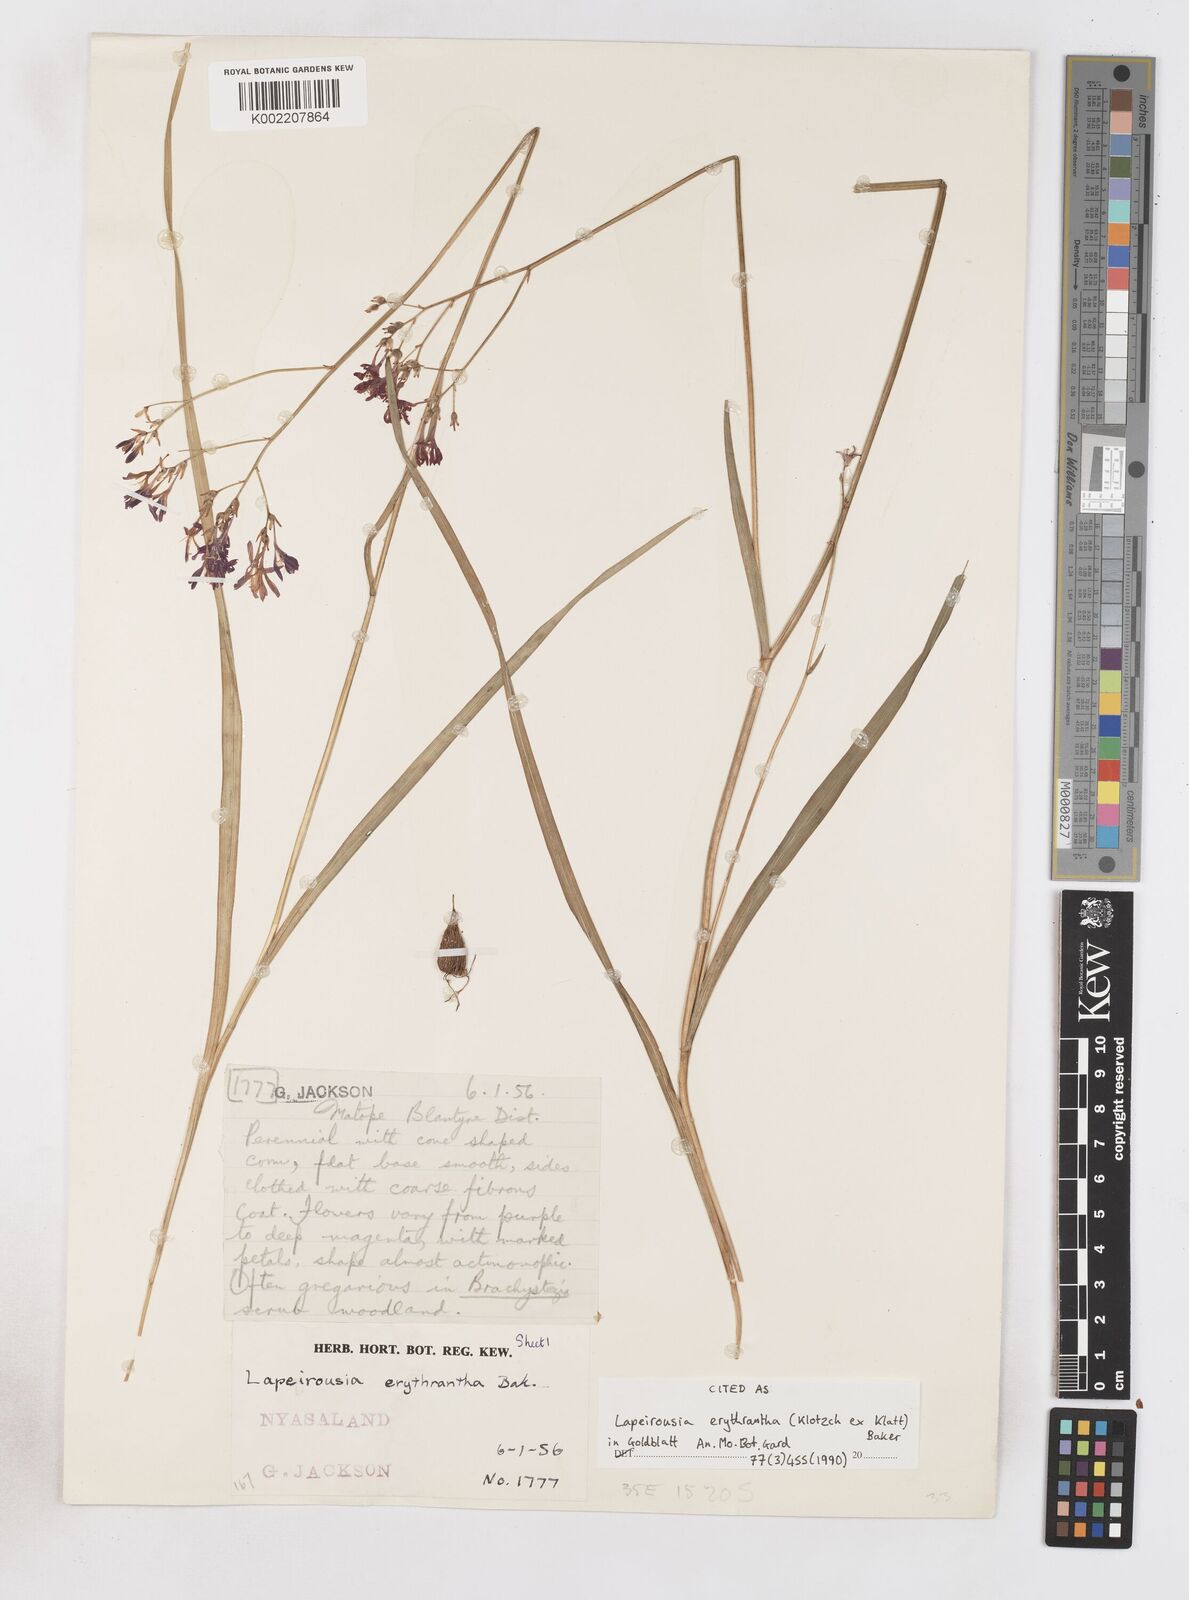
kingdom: Plantae
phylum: Tracheophyta
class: Liliopsida
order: Asparagales
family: Iridaceae
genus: Afrosolen
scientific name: Afrosolen erythranthus
